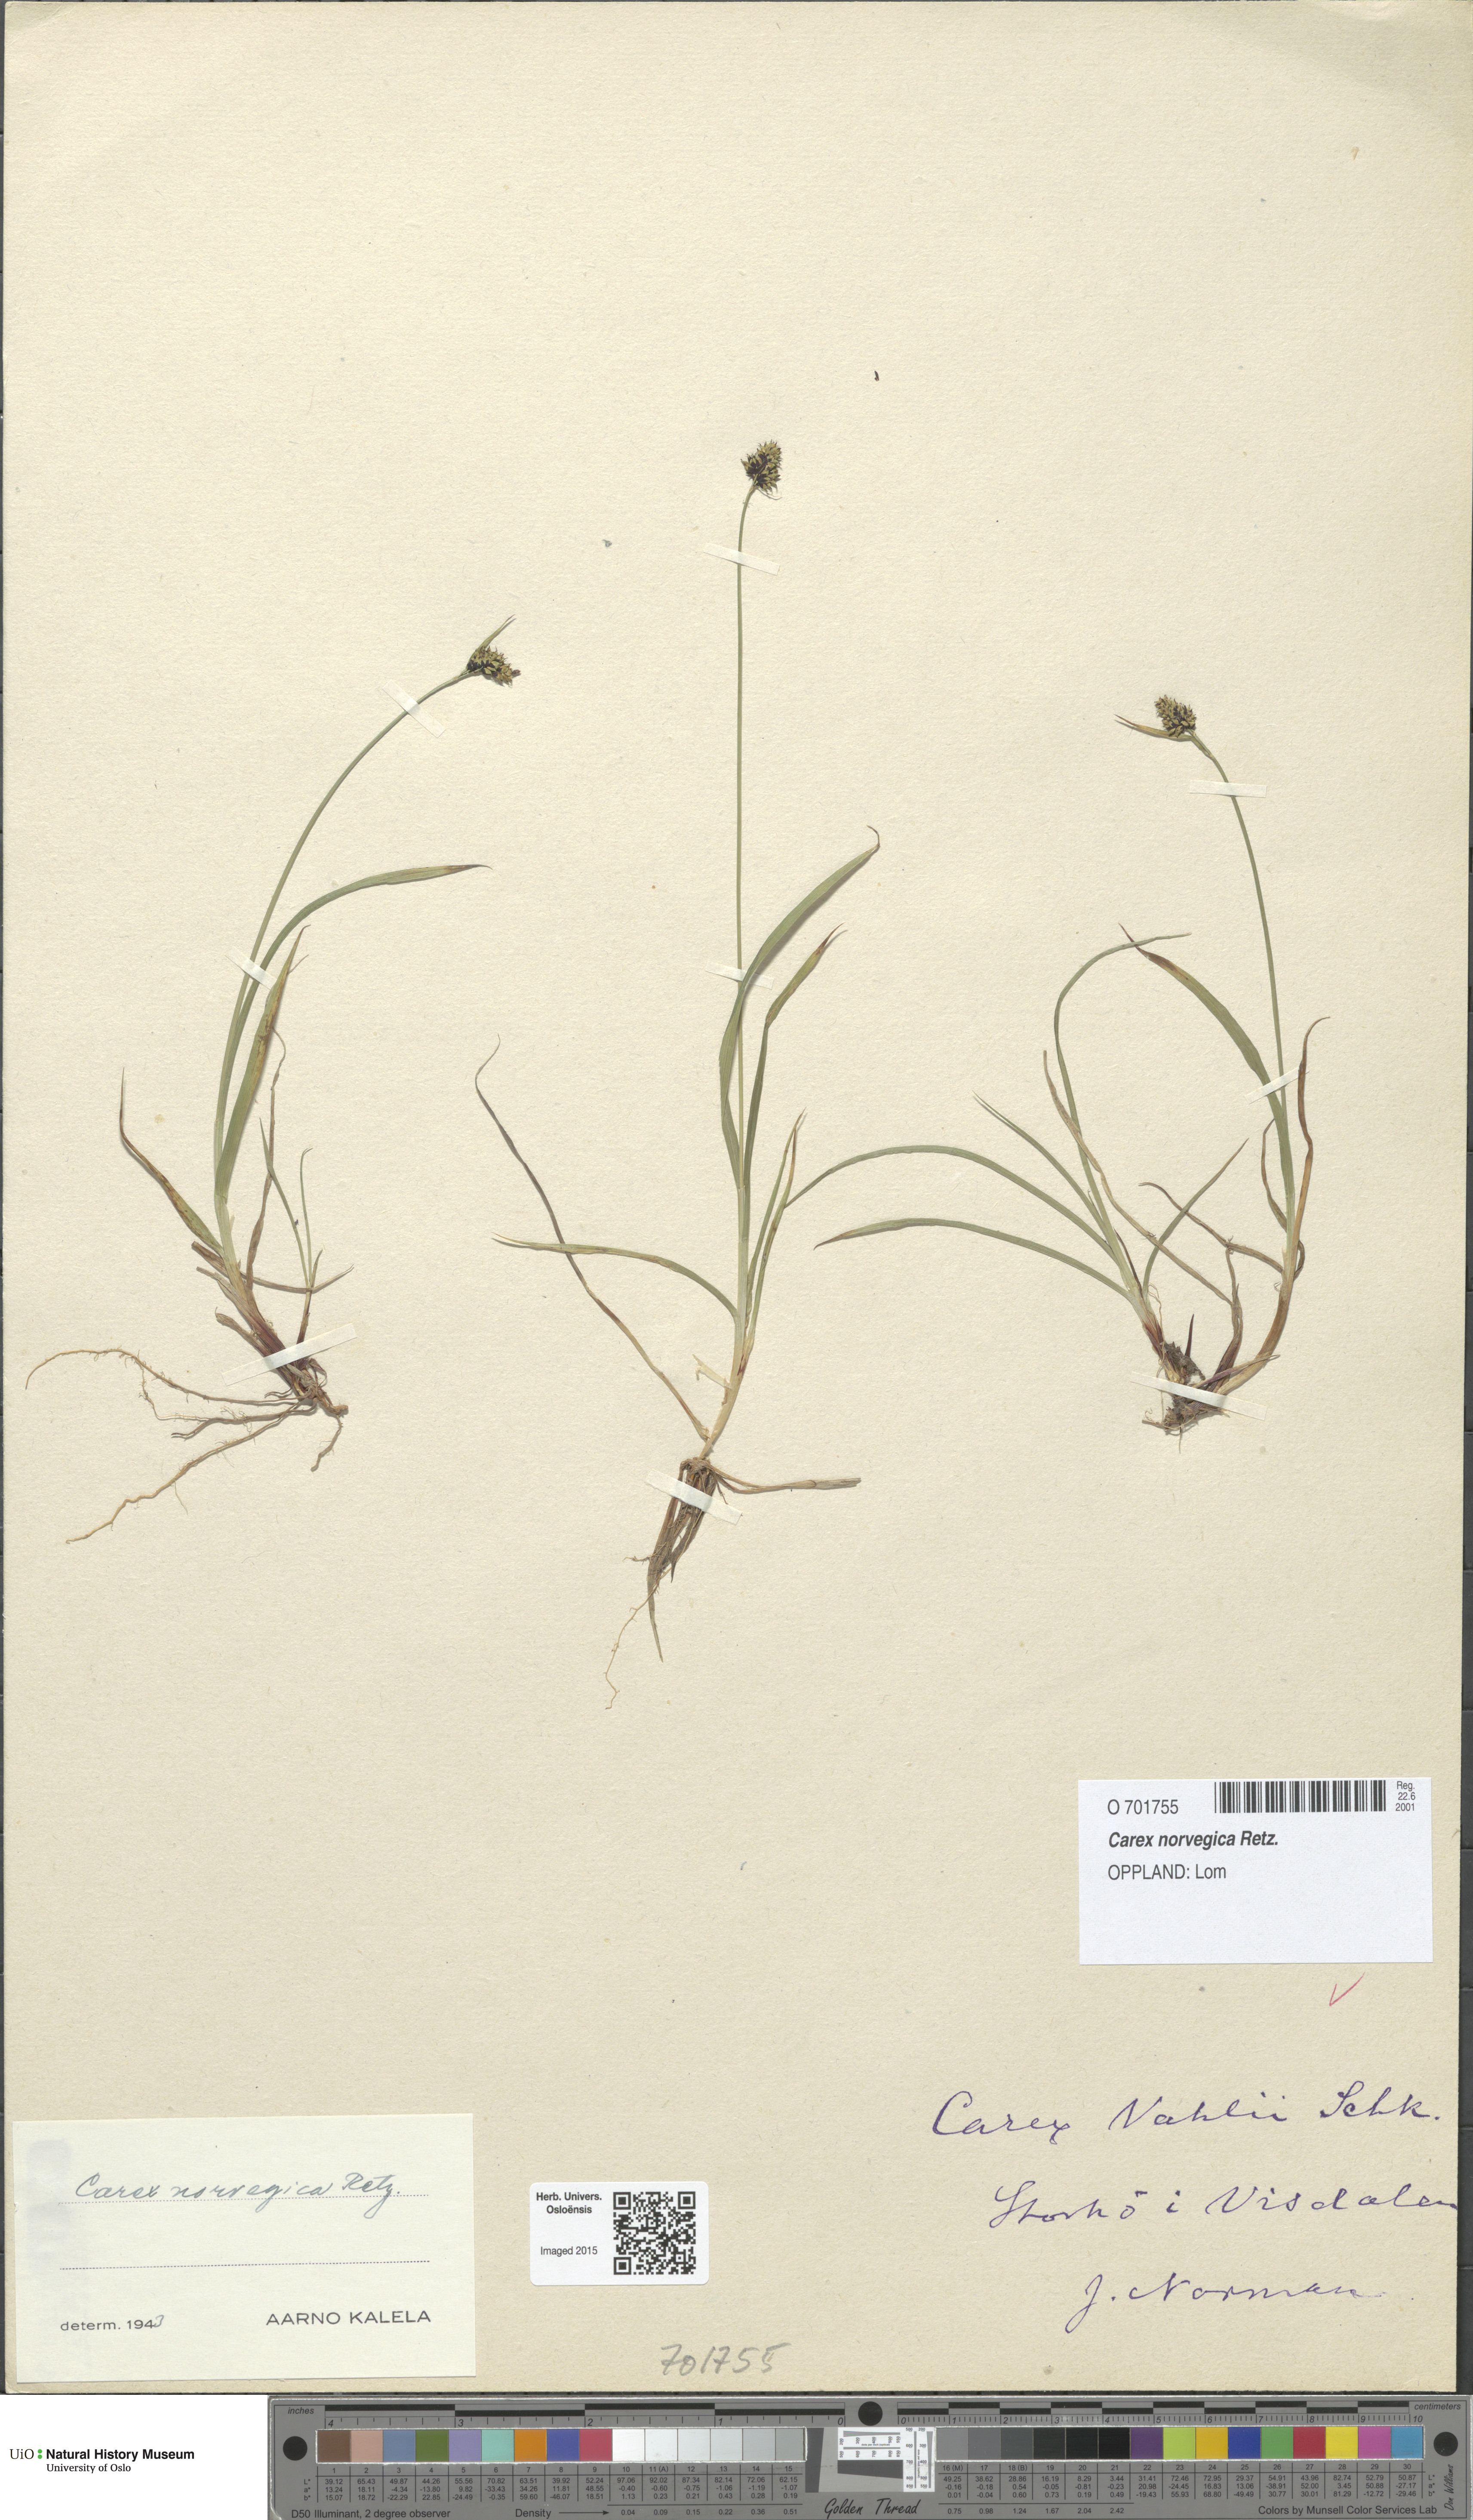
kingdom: Plantae
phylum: Tracheophyta
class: Liliopsida
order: Poales
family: Cyperaceae
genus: Carex
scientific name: Carex norvegica
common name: Close-headed alpine-sedge
